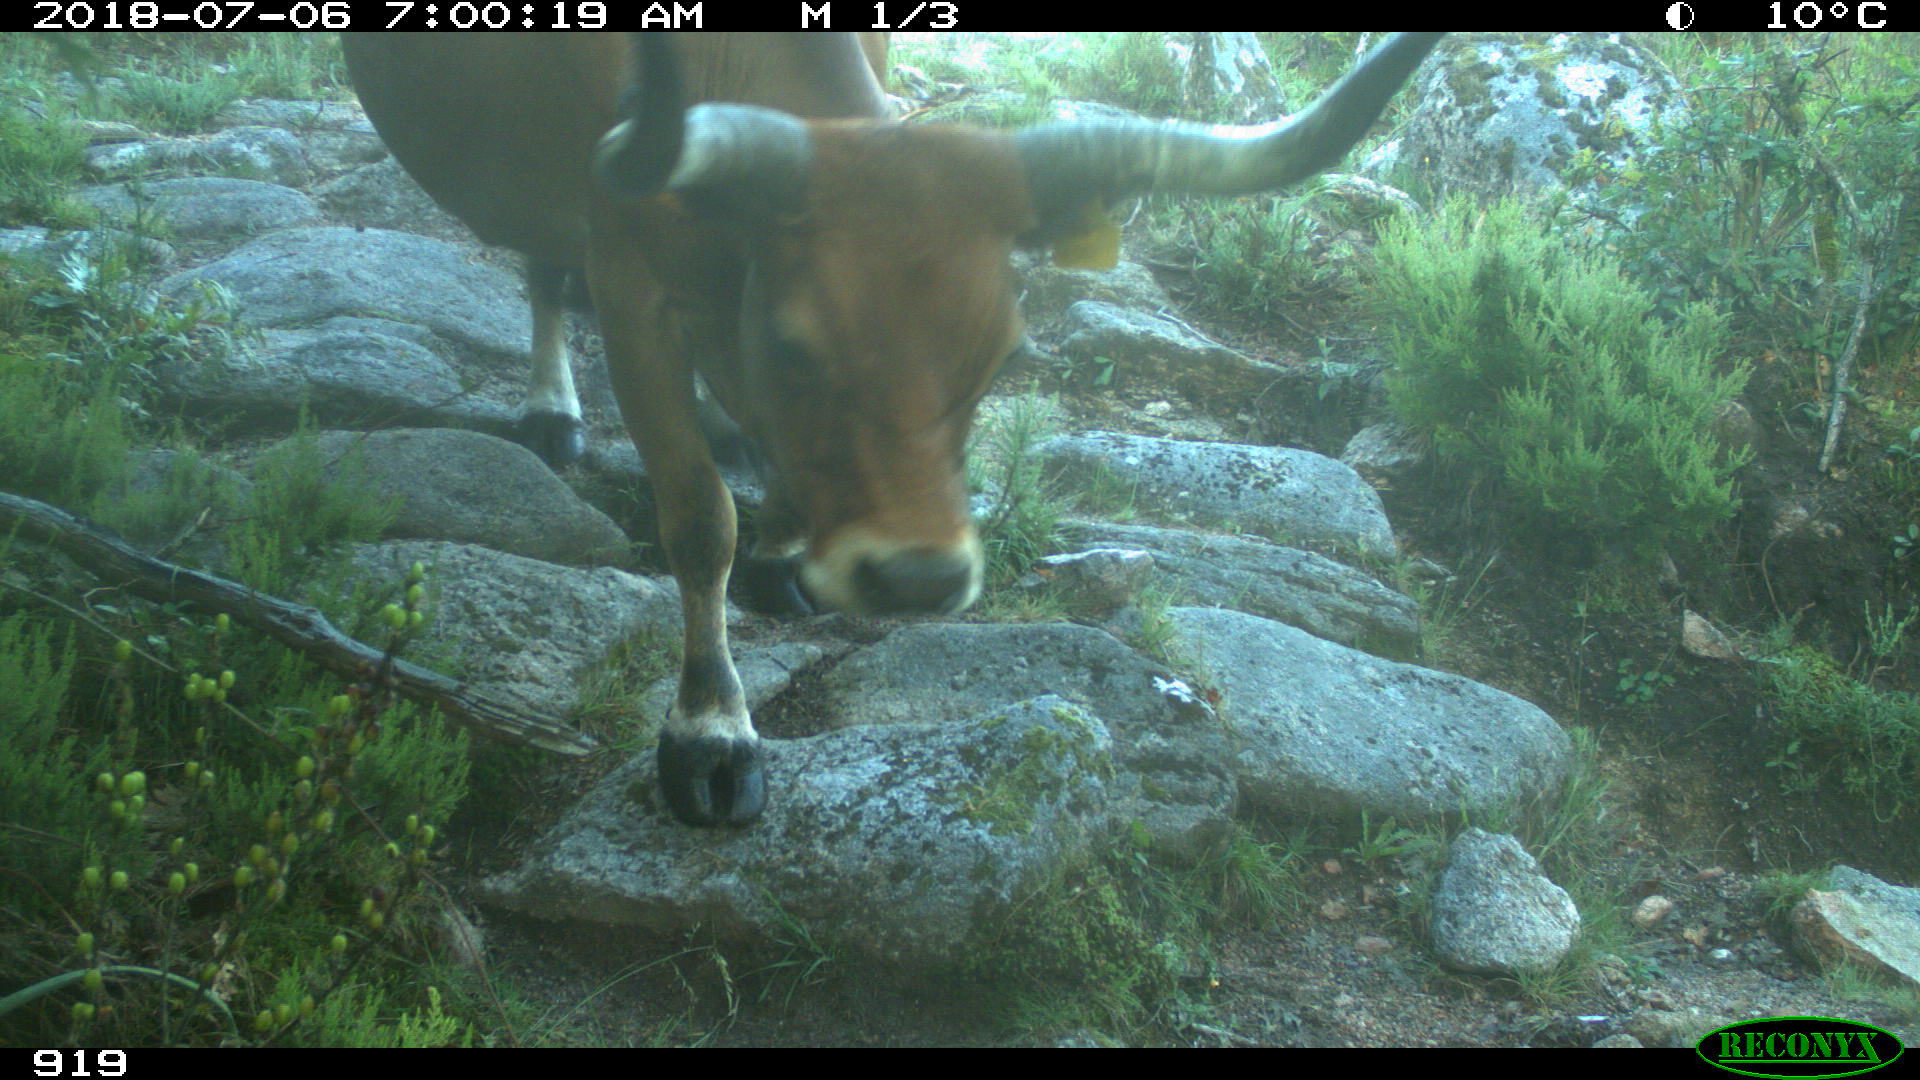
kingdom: Animalia
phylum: Chordata
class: Mammalia
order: Artiodactyla
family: Bovidae
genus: Bos
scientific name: Bos taurus
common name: Domesticated cattle
